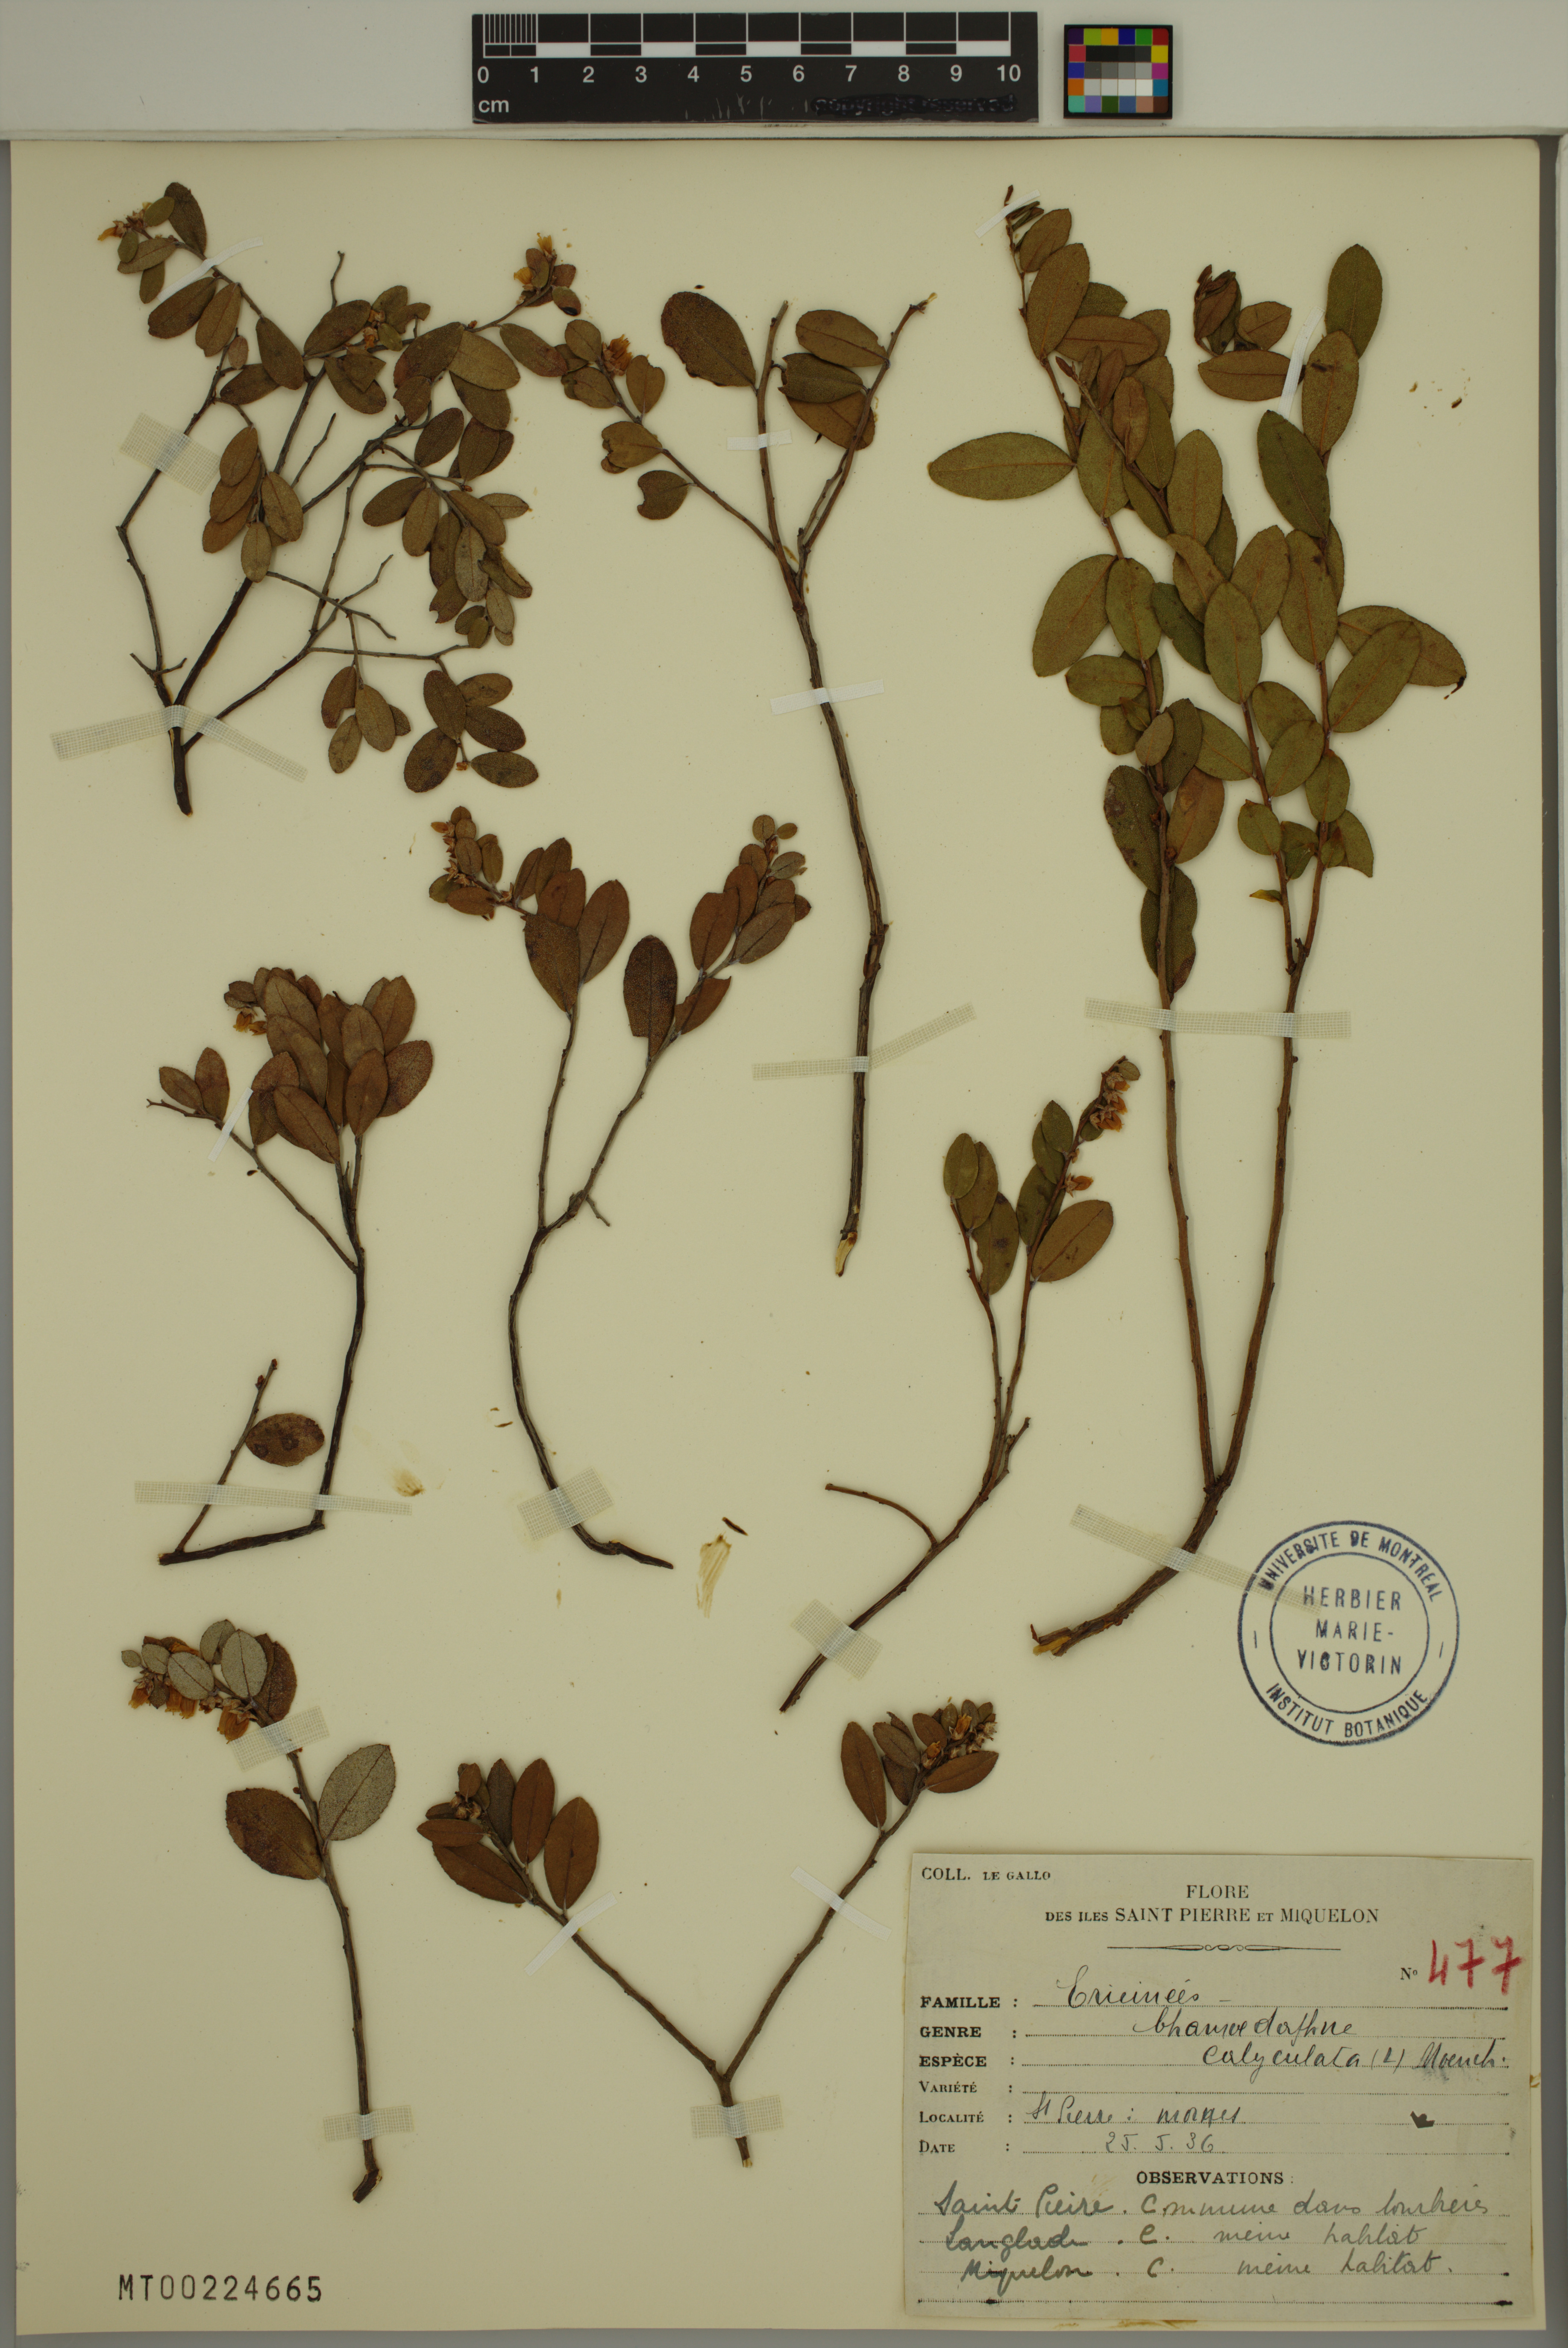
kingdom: Plantae
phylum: Tracheophyta
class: Magnoliopsida
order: Ericales
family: Ericaceae
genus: Chamaedaphne
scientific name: Chamaedaphne calyculata
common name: Leatherleaf
